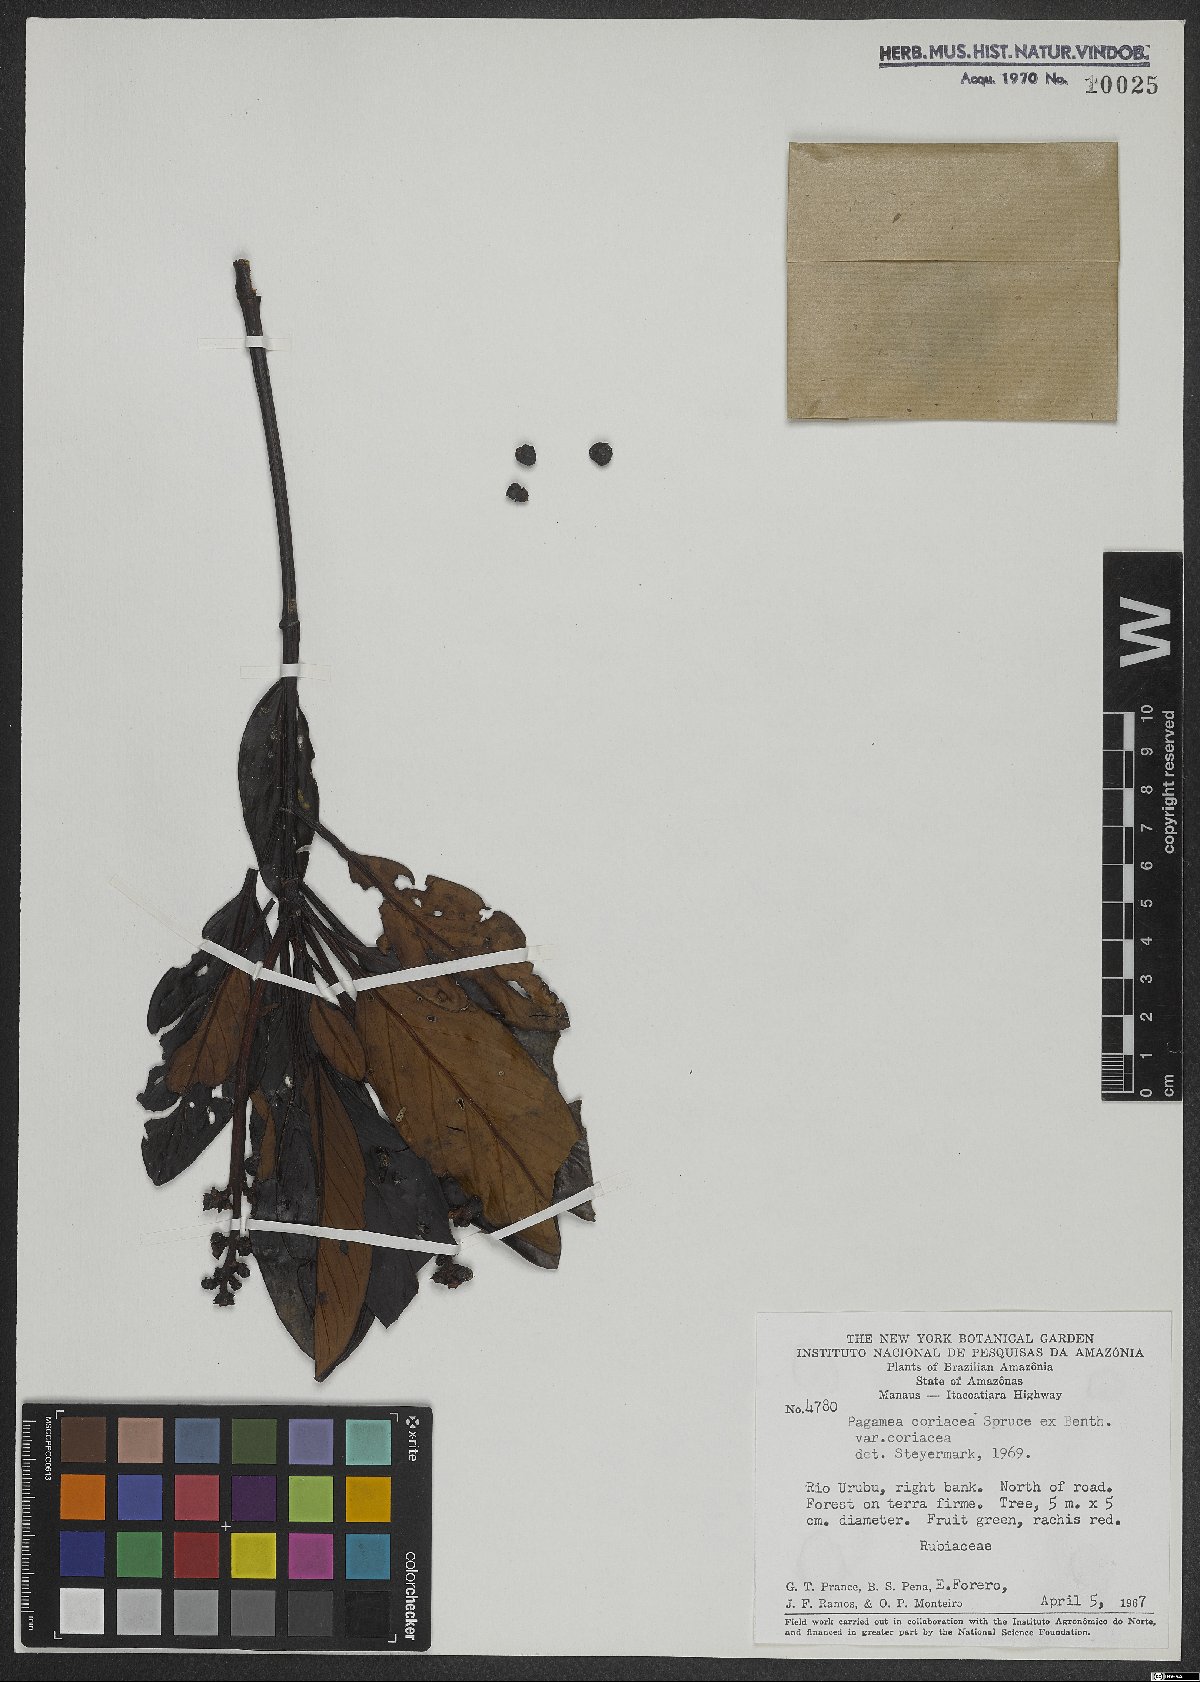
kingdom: Plantae
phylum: Tracheophyta
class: Magnoliopsida
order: Gentianales
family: Rubiaceae
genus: Pagamea
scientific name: Pagamea coriacea
